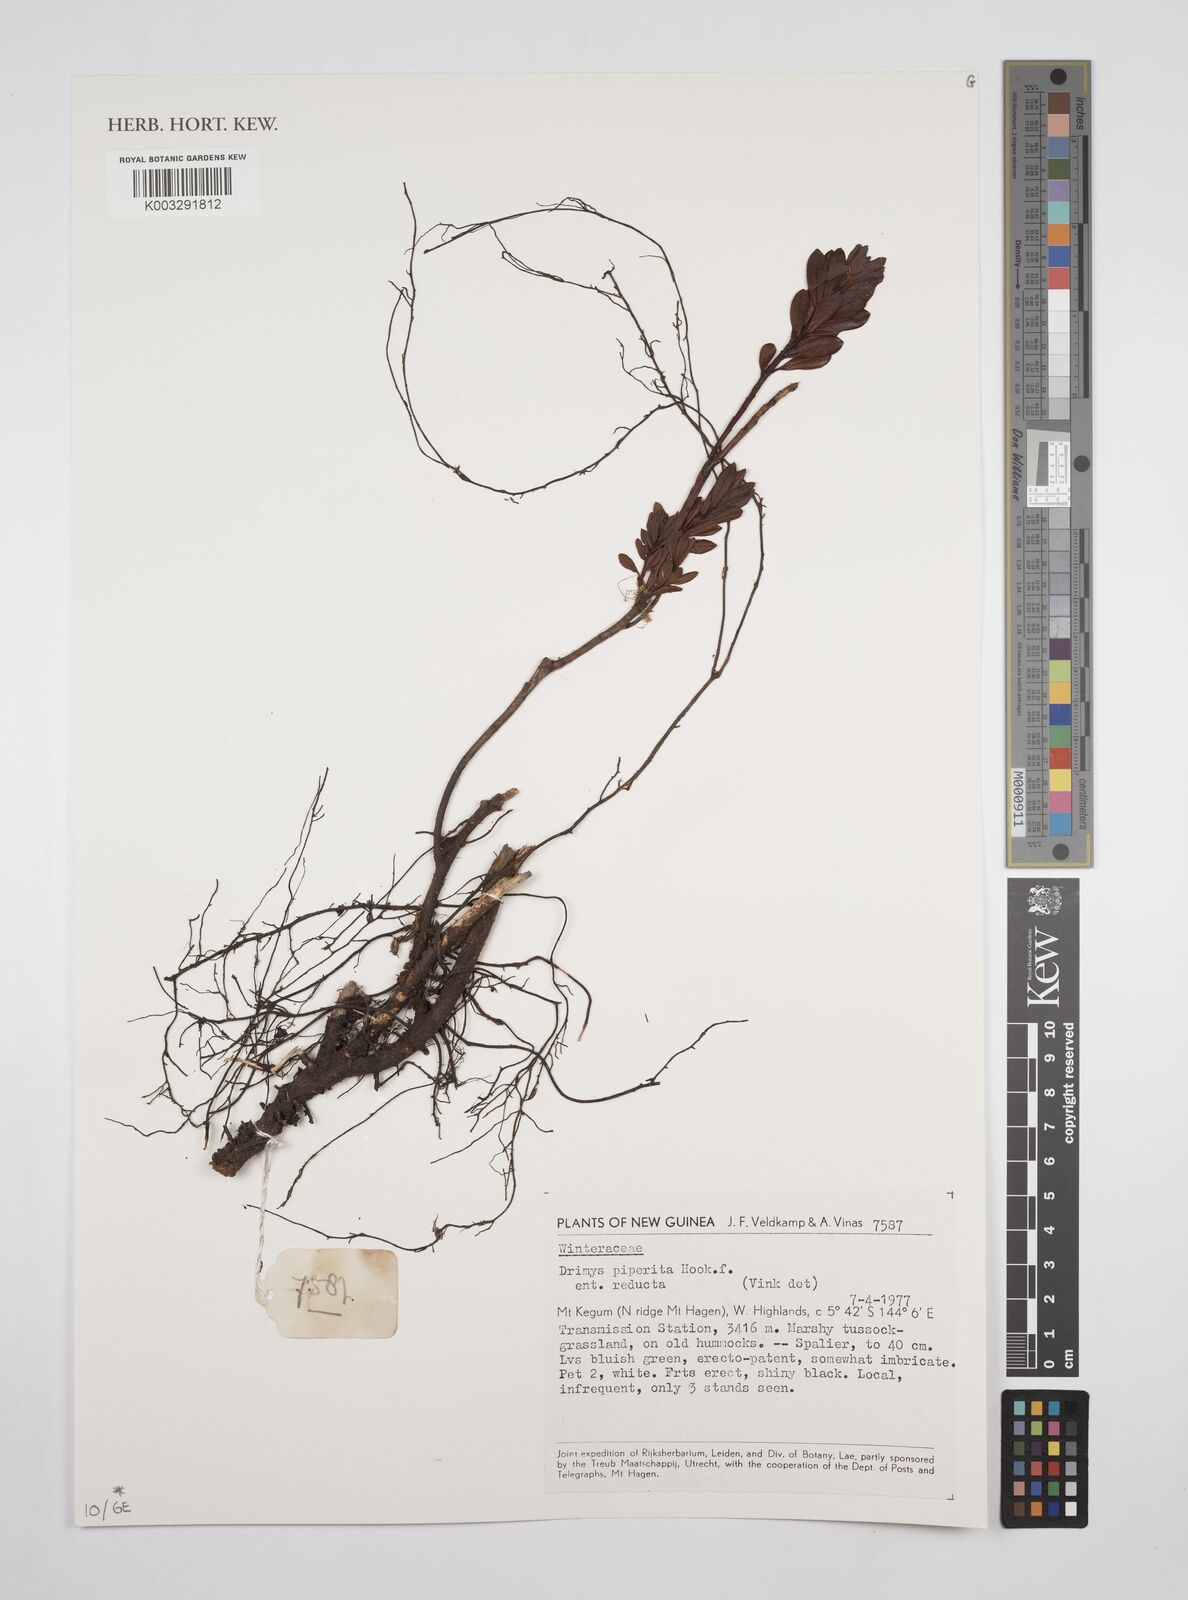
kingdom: Plantae
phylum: Tracheophyta
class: Magnoliopsida
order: Canellales
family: Winteraceae
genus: Drimys
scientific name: Drimys piperita
